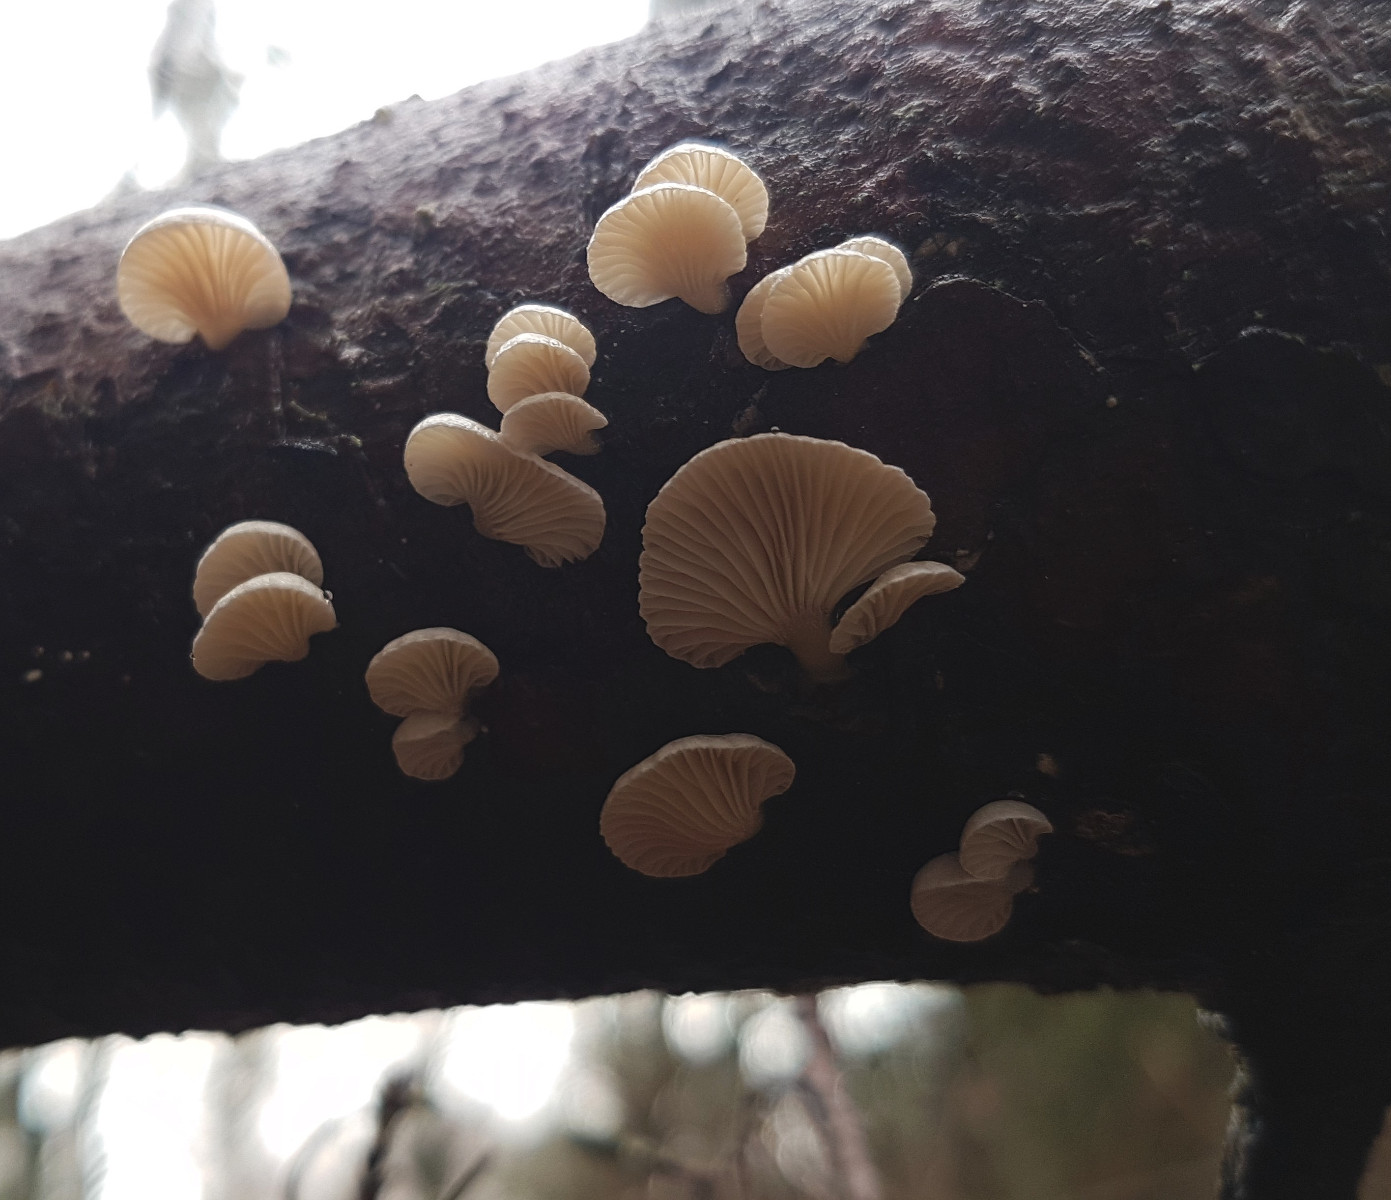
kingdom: Fungi
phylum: Basidiomycota
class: Agaricomycetes
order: Agaricales
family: Mycenaceae
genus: Panellus
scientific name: Panellus mitis
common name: mild epaulethat
